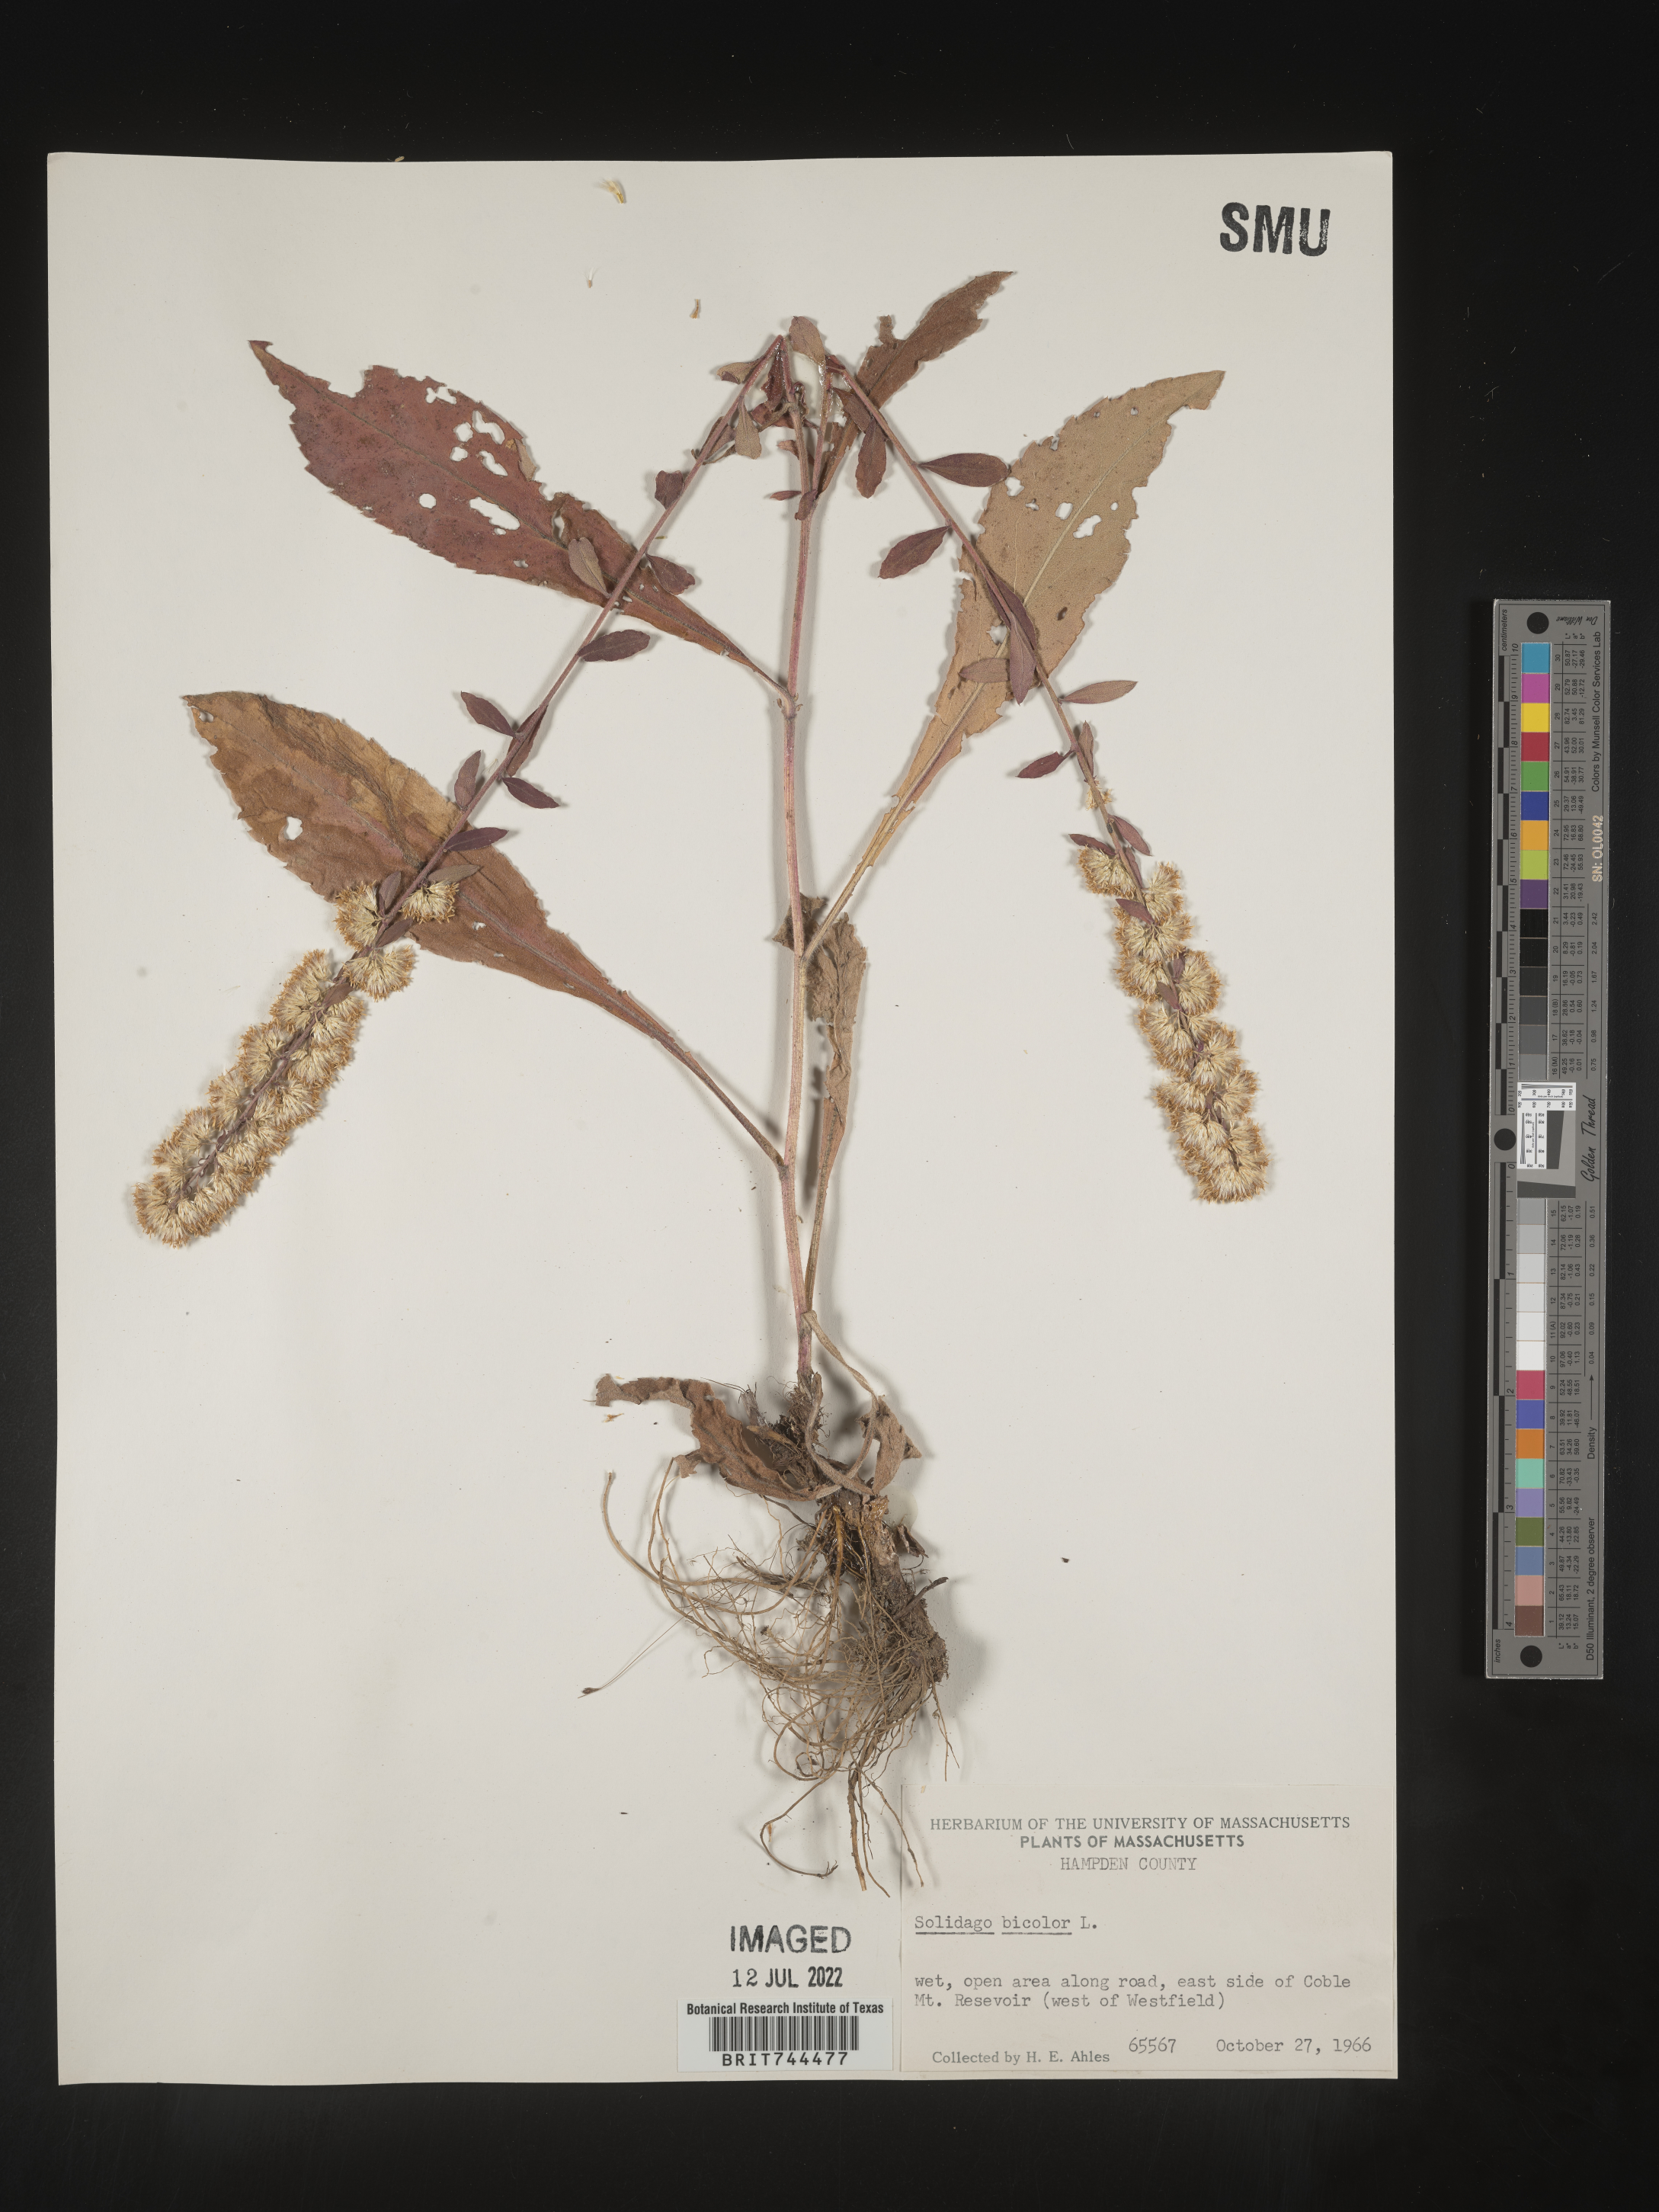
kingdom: Plantae
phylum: Tracheophyta
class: Magnoliopsida
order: Asterales
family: Asteraceae
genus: Solidago
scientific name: Solidago bicolor
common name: Silverrod
